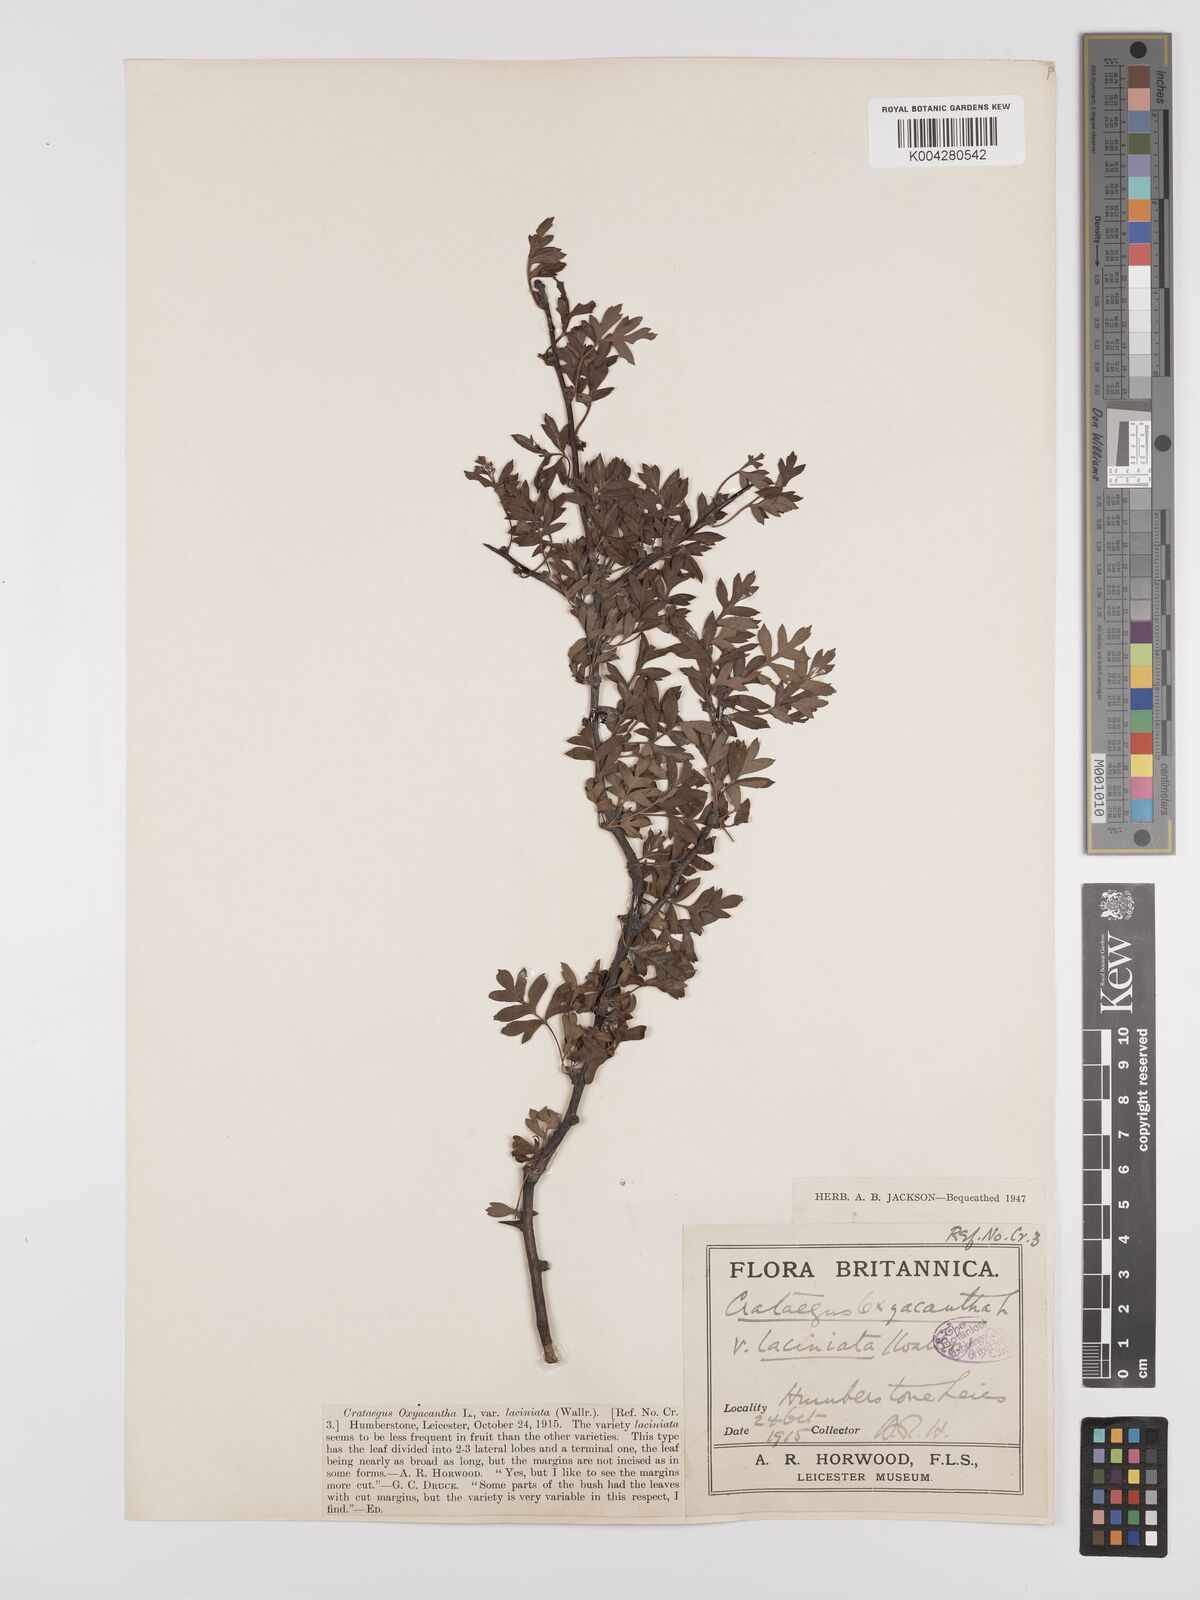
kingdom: Plantae
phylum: Tracheophyta
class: Magnoliopsida
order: Rosales
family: Rosaceae
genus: Crataegus
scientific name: Crataegus monogyna
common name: Hawthorn
